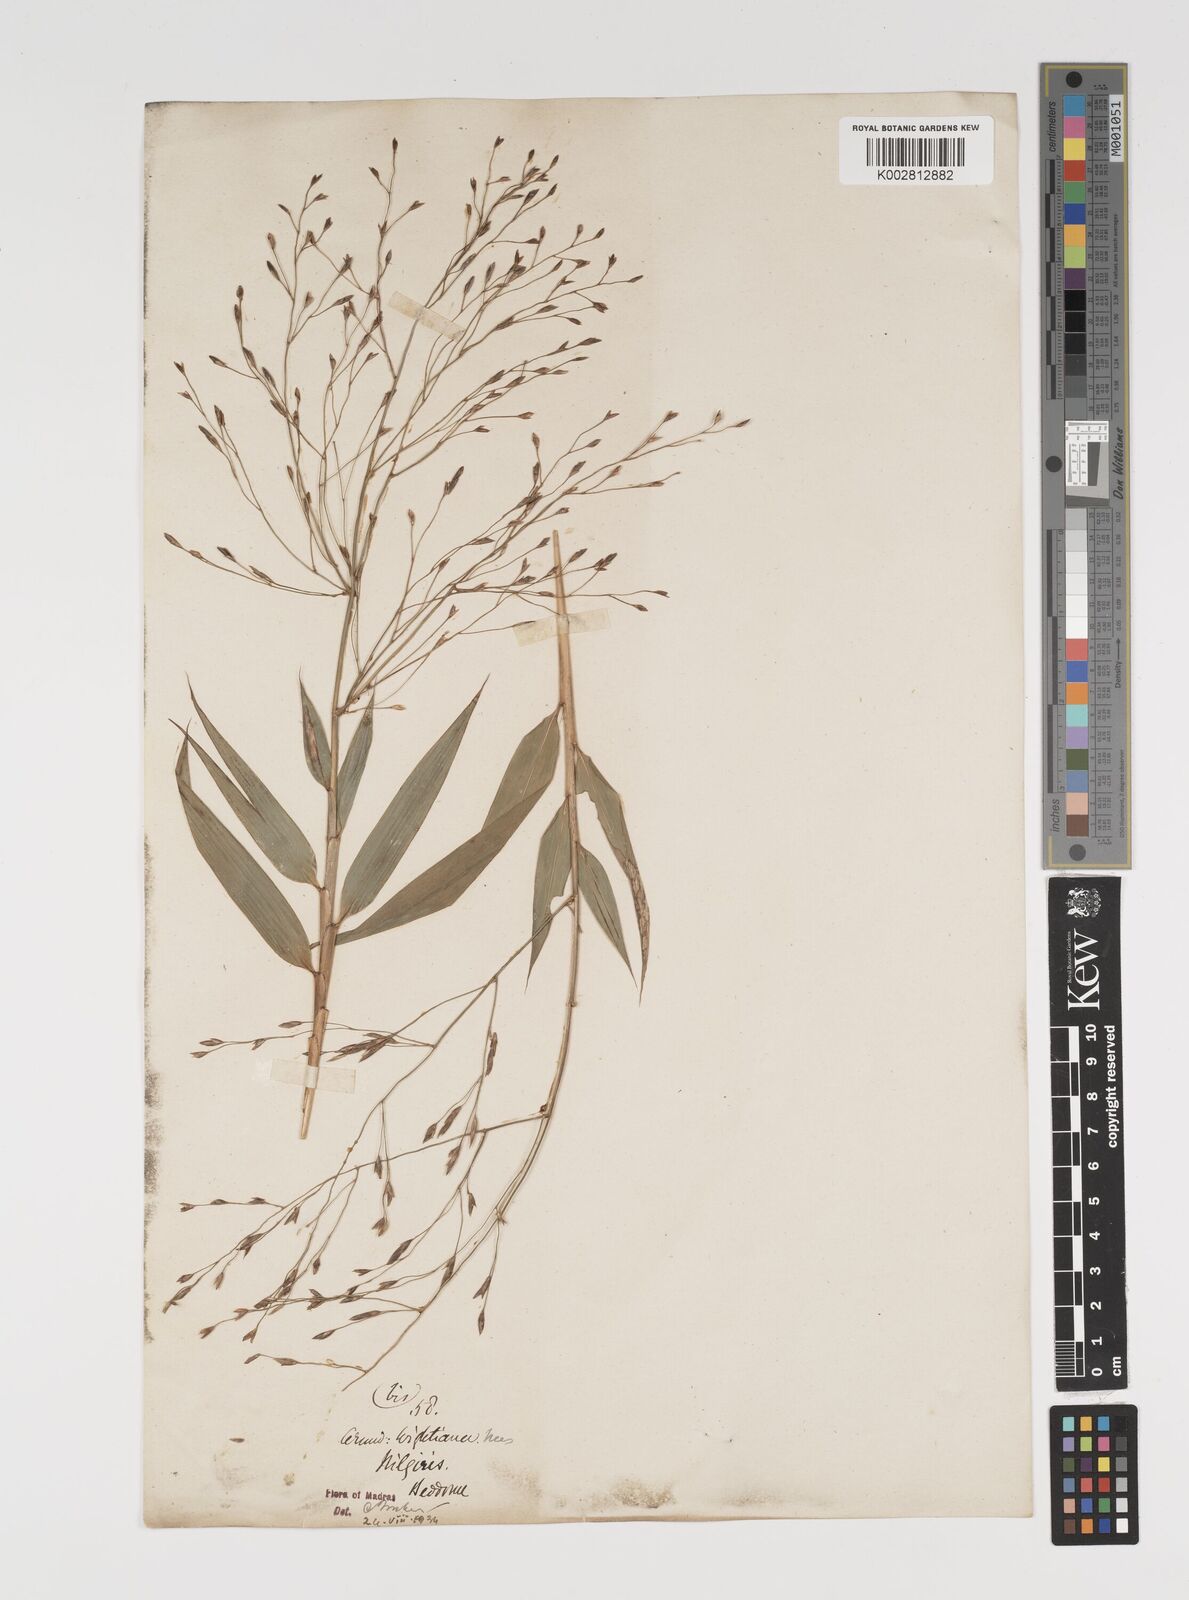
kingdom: Plantae
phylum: Tracheophyta
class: Liliopsida
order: Poales
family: Poaceae
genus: Kuruna
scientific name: Kuruna wightiana
